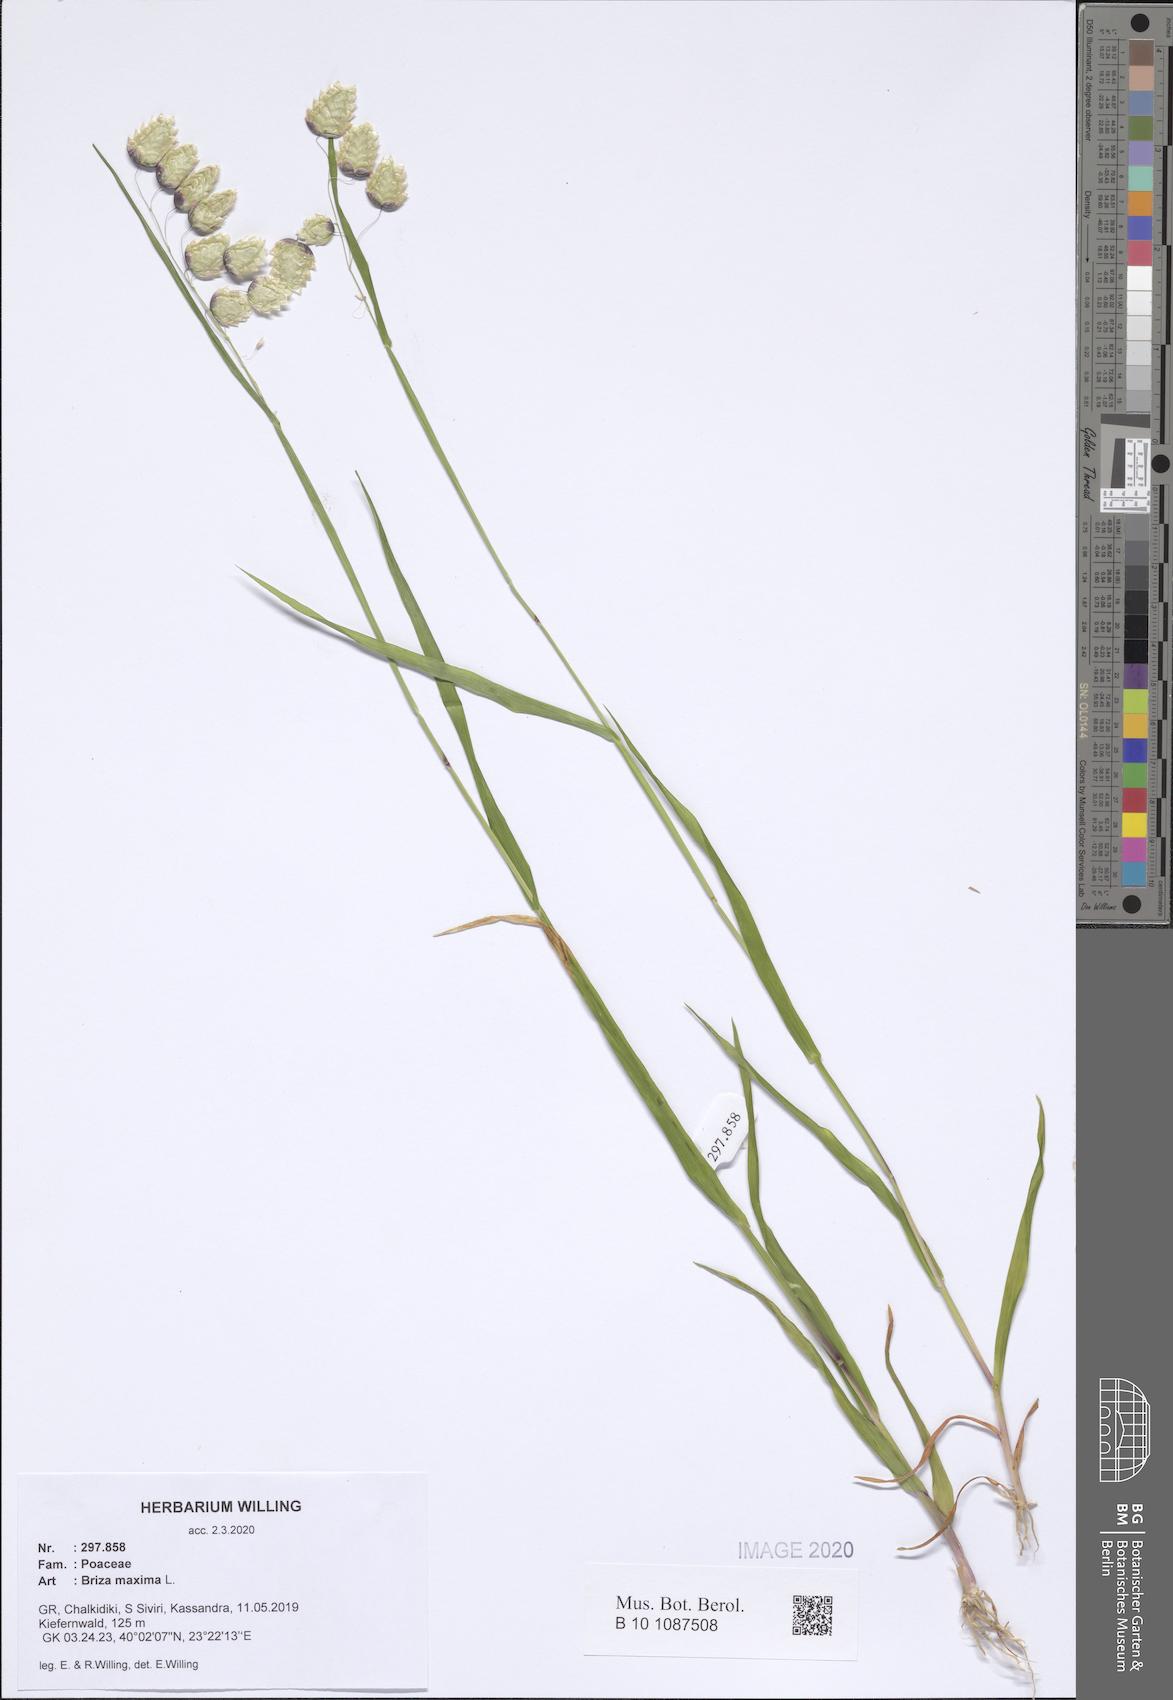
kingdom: Plantae
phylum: Tracheophyta
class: Liliopsida
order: Poales
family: Poaceae
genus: Briza
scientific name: Briza maxima
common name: Big quakinggrass
